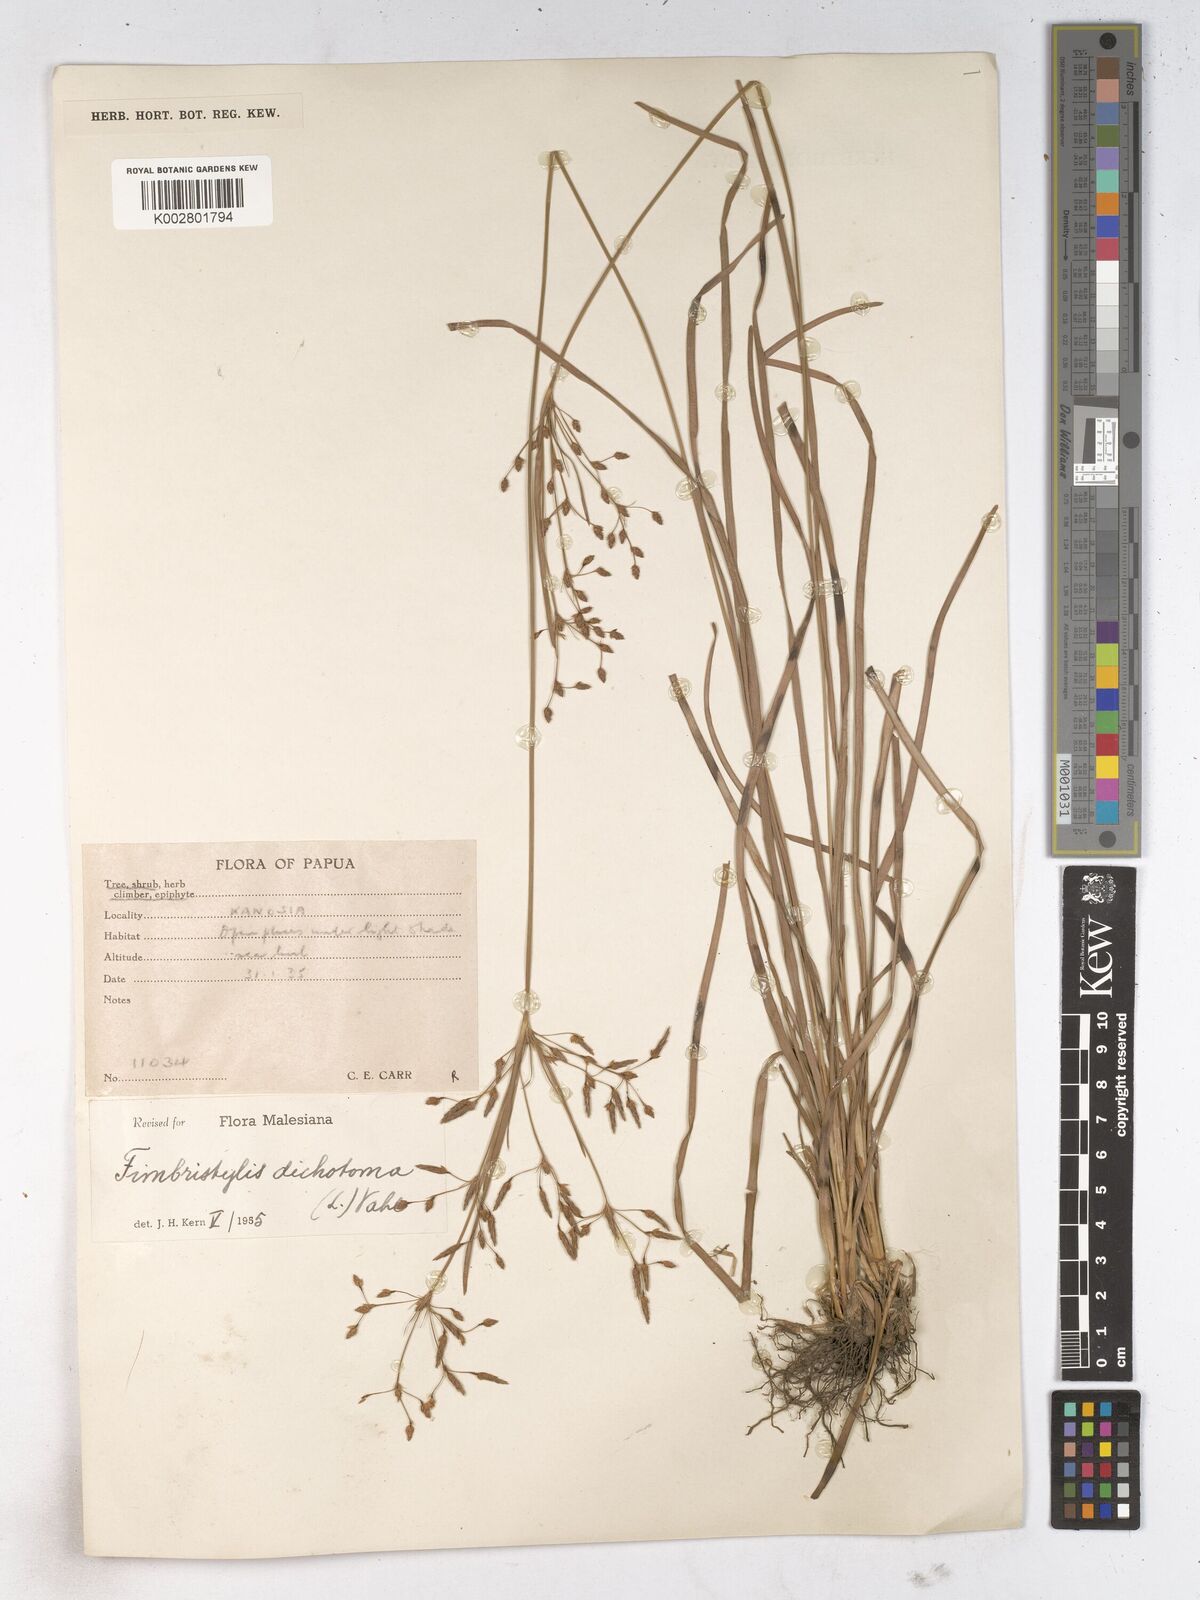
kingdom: Plantae
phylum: Tracheophyta
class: Liliopsida
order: Poales
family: Cyperaceae
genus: Fimbristylis
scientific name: Fimbristylis dichotoma
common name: Forked fimbry
